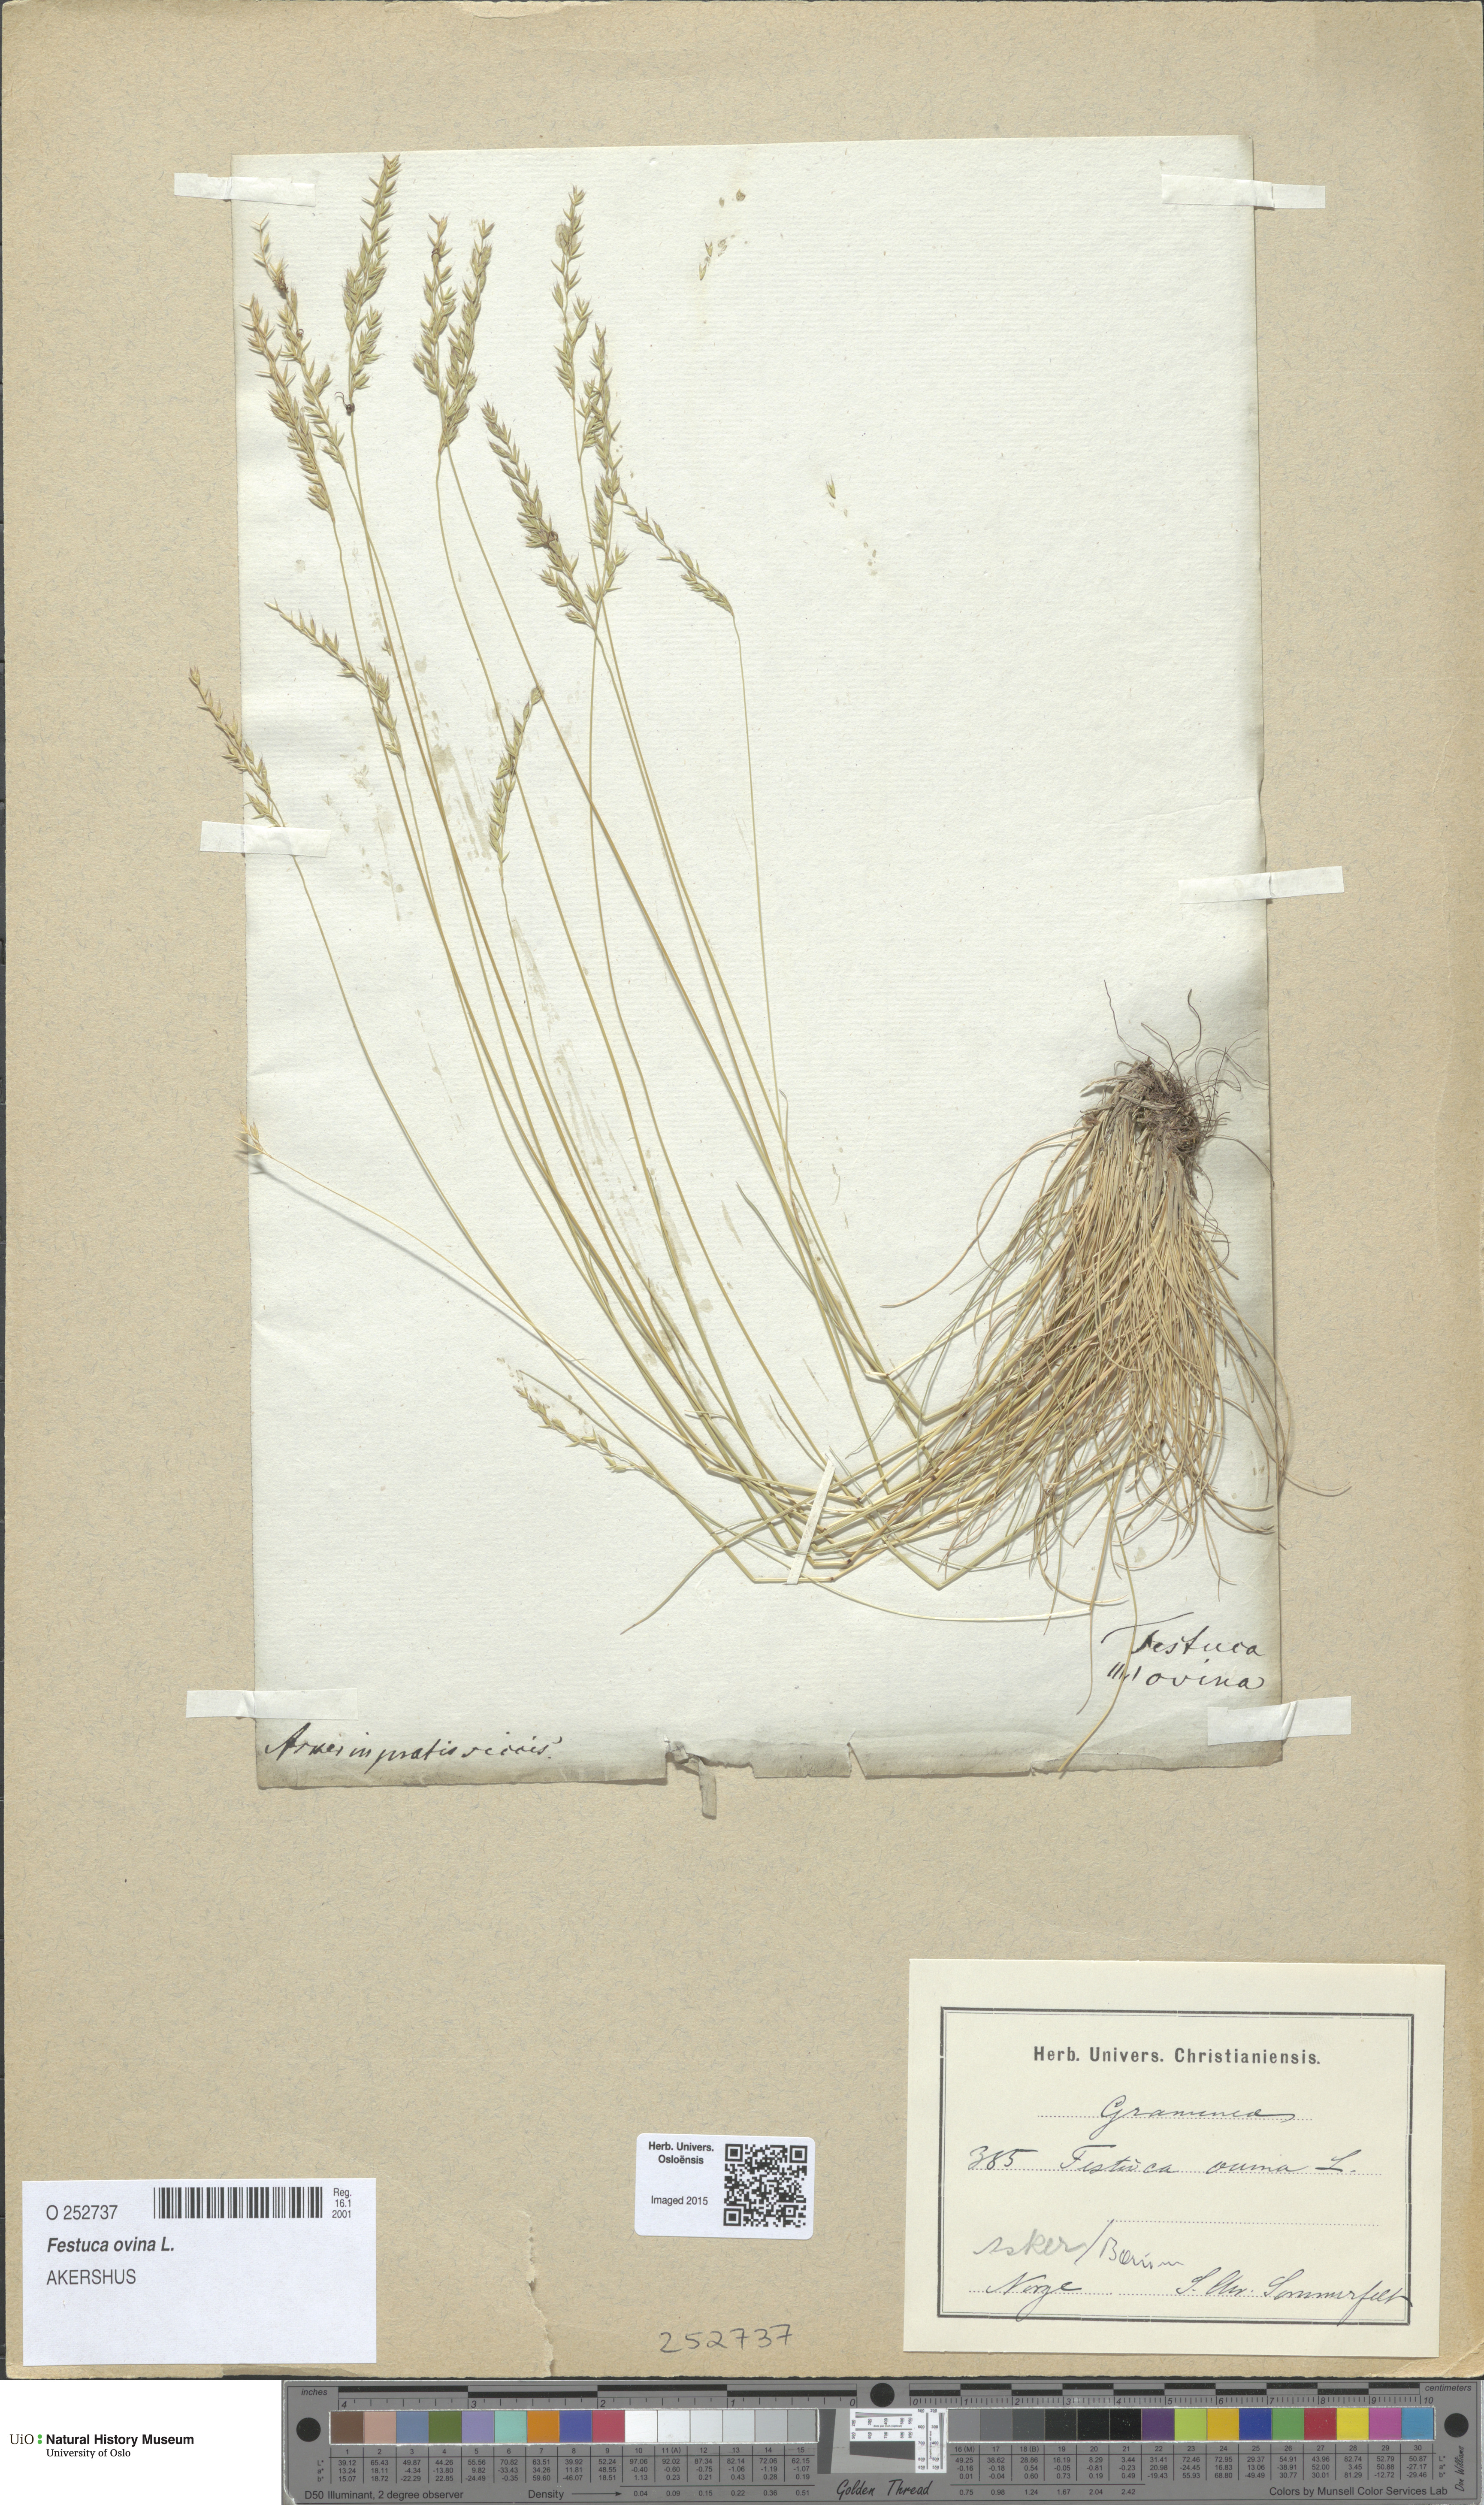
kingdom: Plantae
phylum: Tracheophyta
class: Liliopsida
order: Poales
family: Poaceae
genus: Festuca
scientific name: Festuca ovina
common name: Sheep fescue
